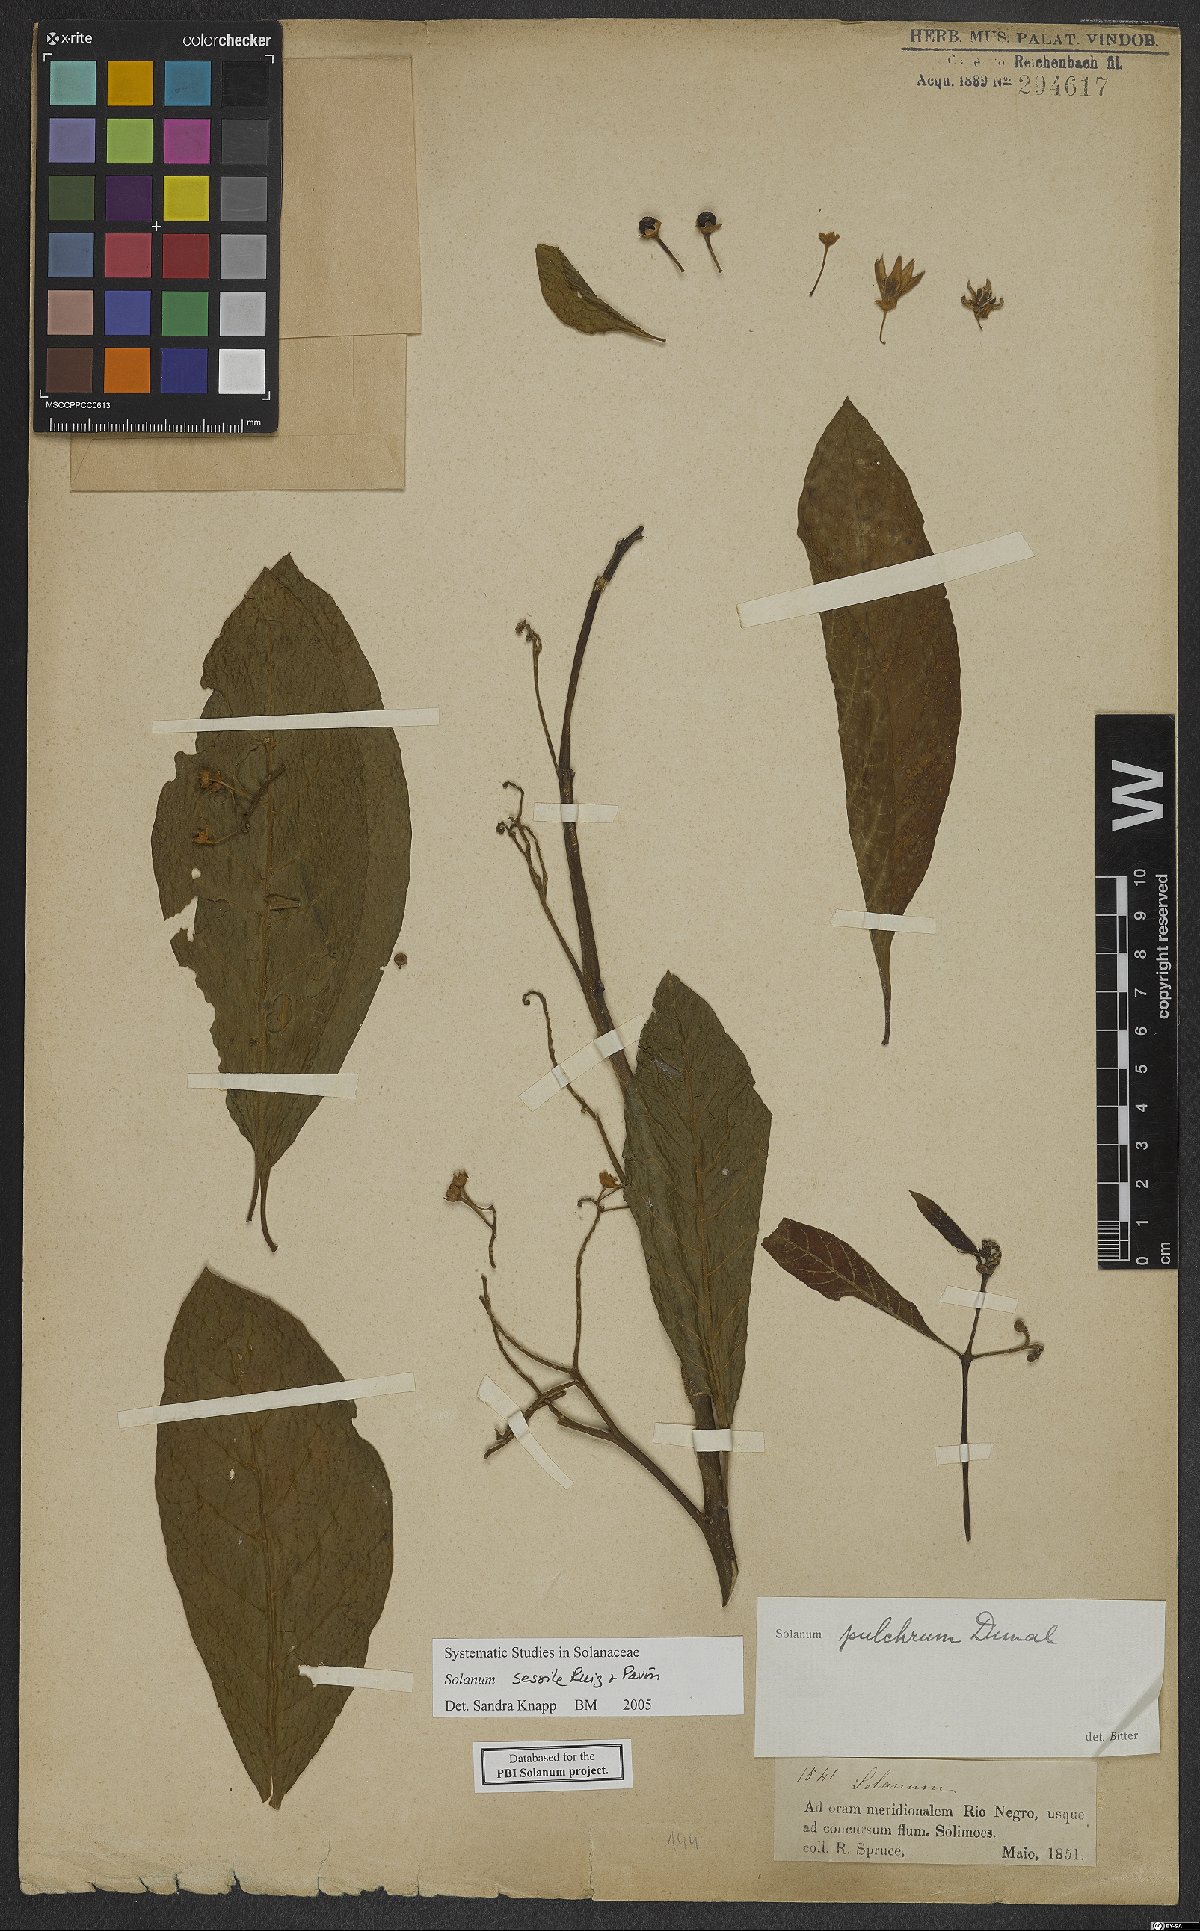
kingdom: Plantae
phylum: Tracheophyta
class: Magnoliopsida
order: Solanales
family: Solanaceae
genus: Solanum
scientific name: Solanum sessile
